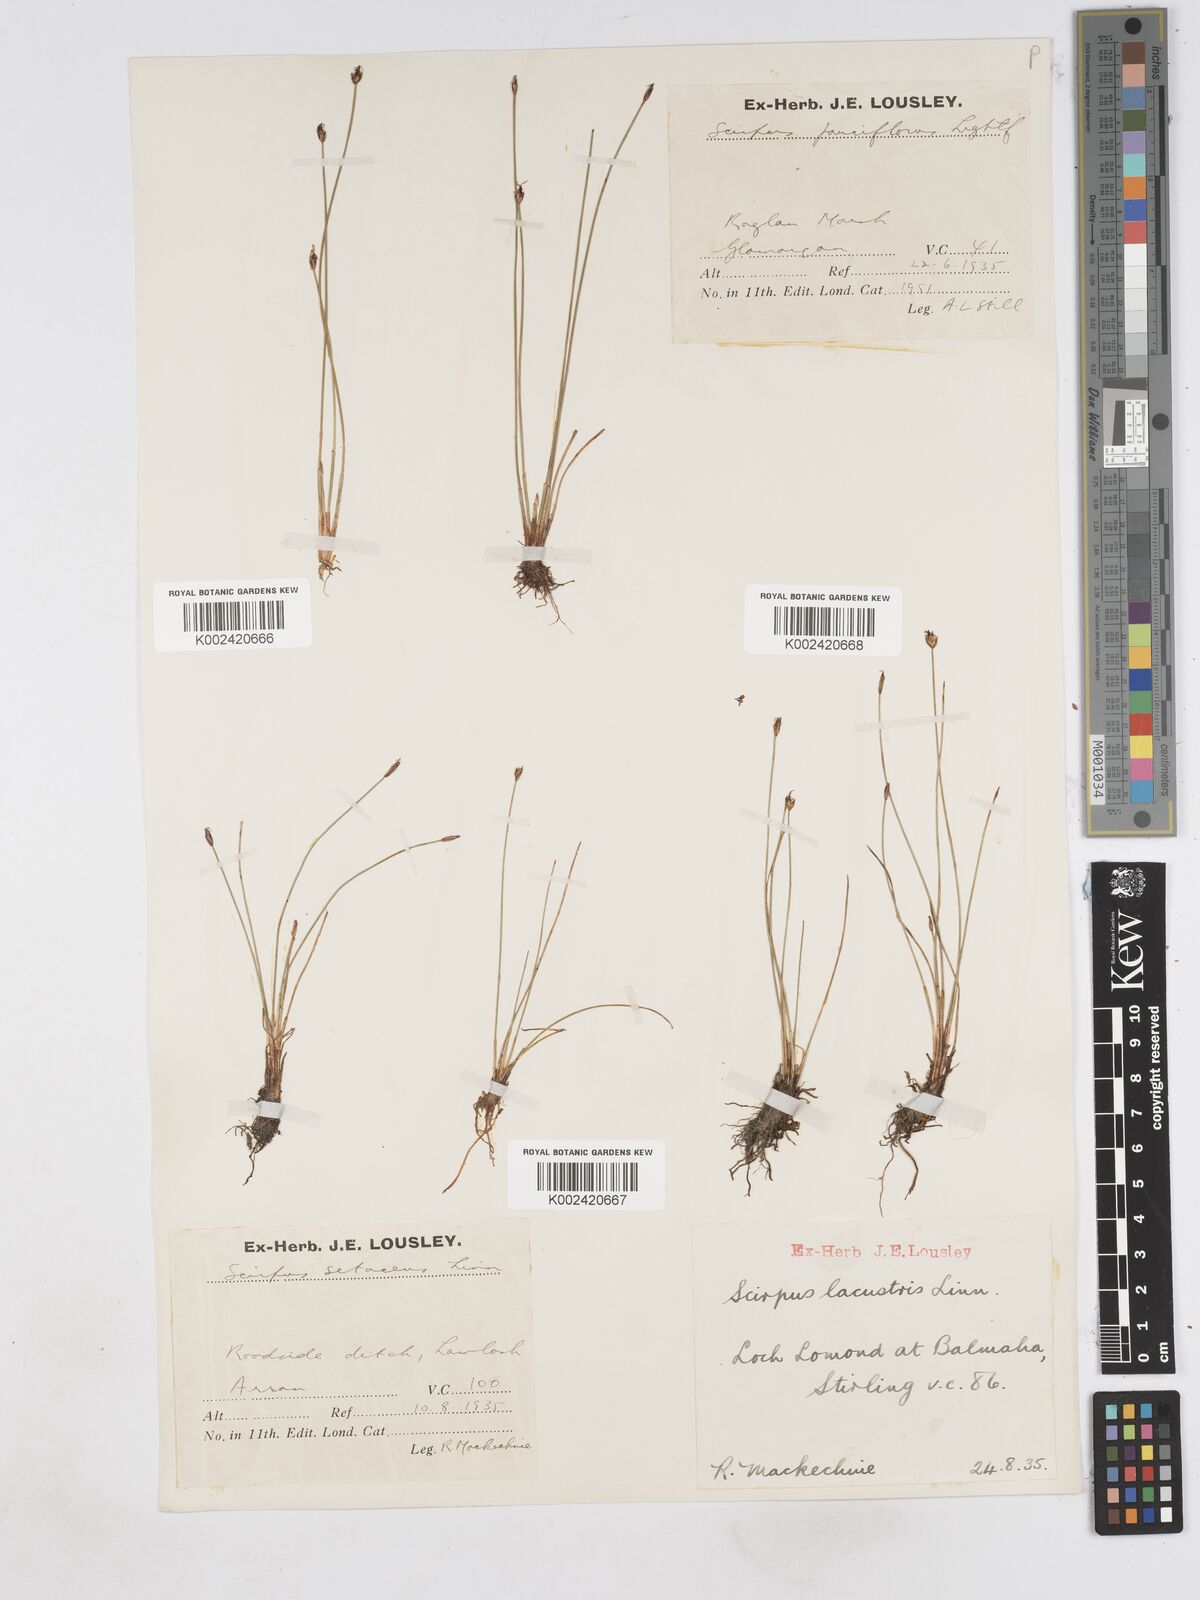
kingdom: Plantae
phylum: Tracheophyta
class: Liliopsida
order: Poales
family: Cyperaceae
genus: Eleocharis
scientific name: Eleocharis quinqueflora
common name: Few-flowered spike-rush
